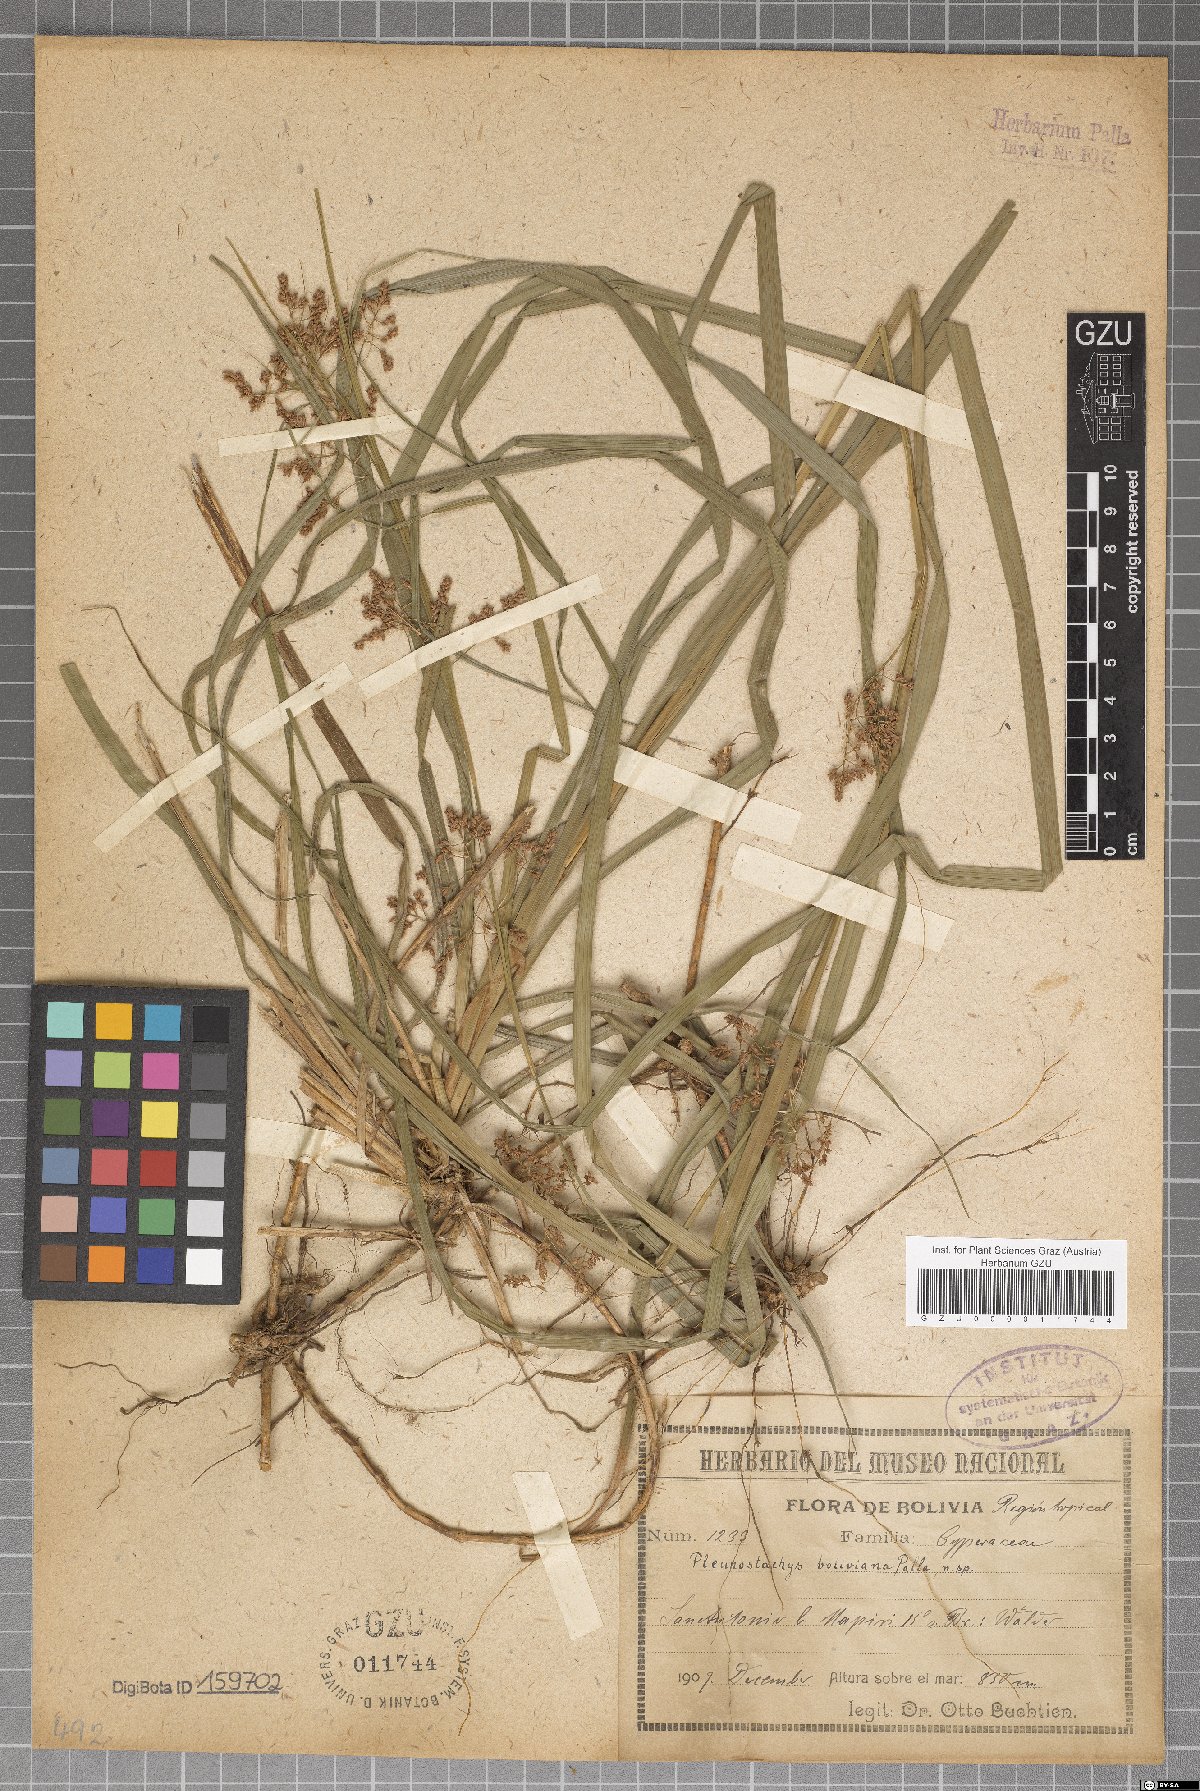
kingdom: Plantae
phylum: Tracheophyta
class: Liliopsida
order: Poales
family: Cyperaceae
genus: Rhynchospora
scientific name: Rhynchospora Pleurostachys boliviana
